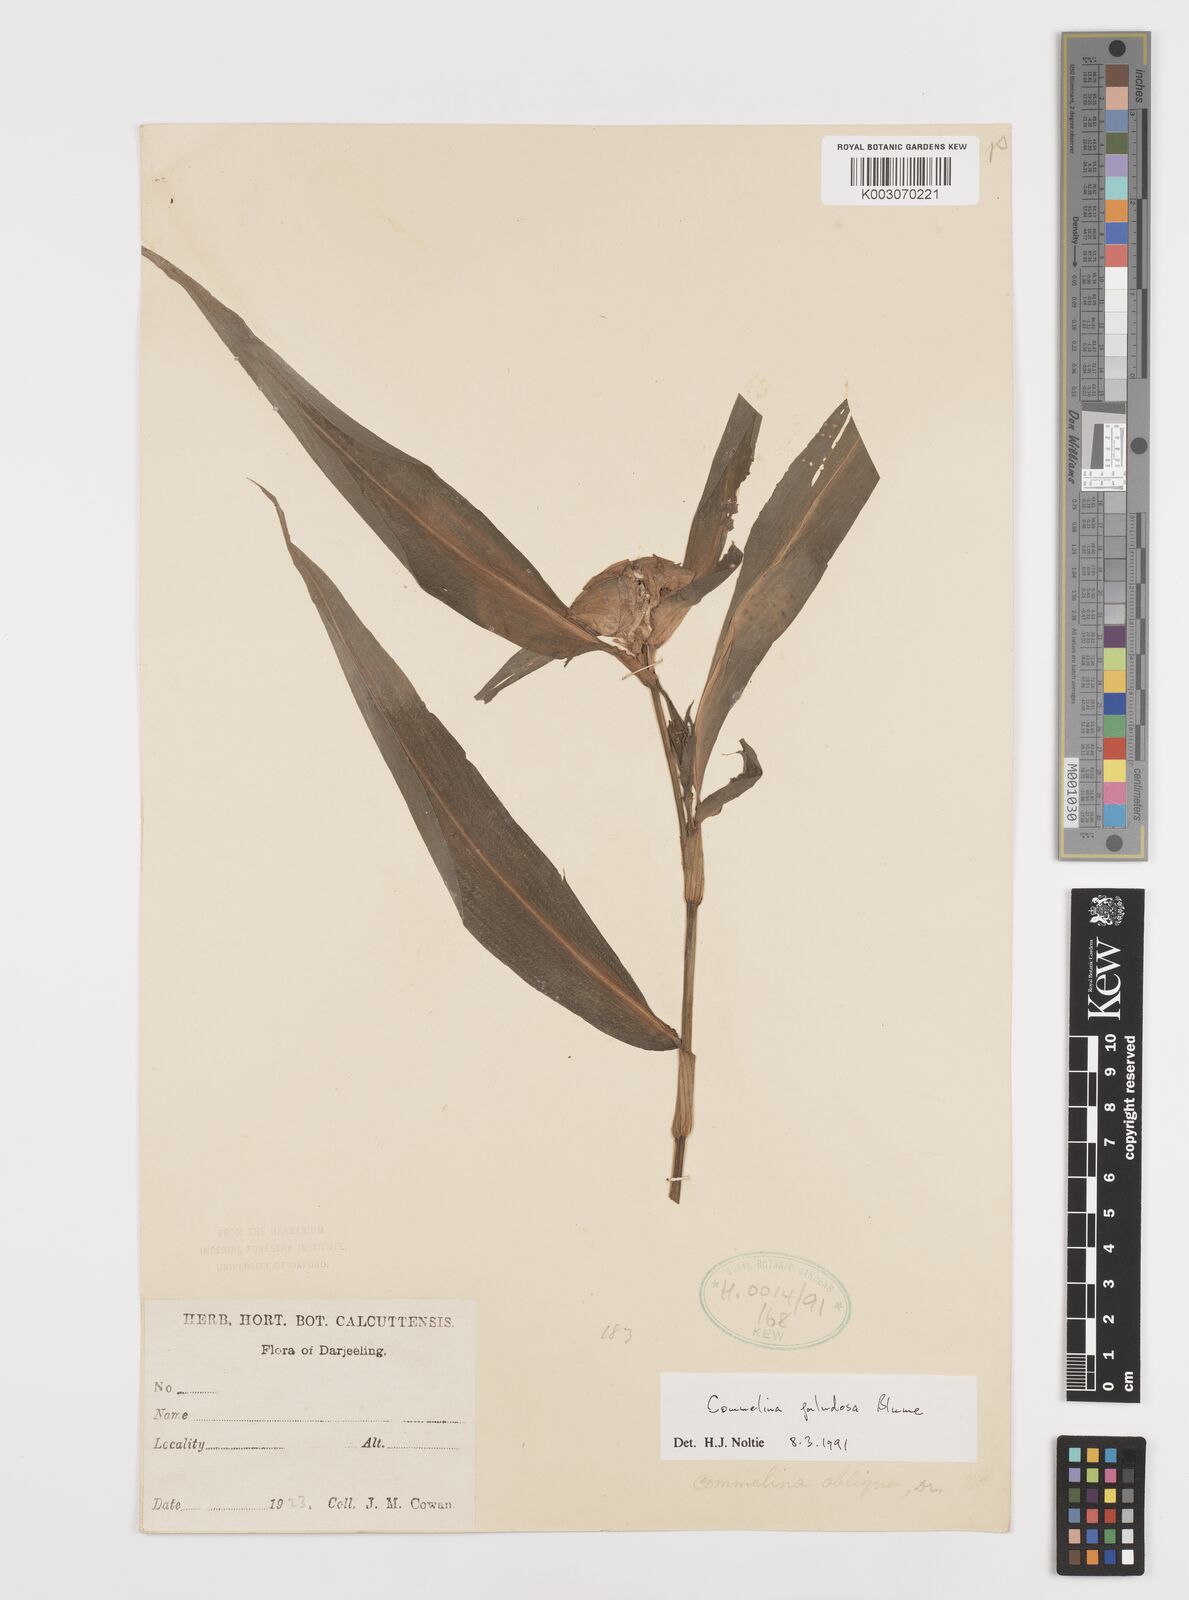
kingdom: Plantae
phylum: Tracheophyta
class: Liliopsida
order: Commelinales
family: Commelinaceae
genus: Commelina
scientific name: Commelina paludosa
